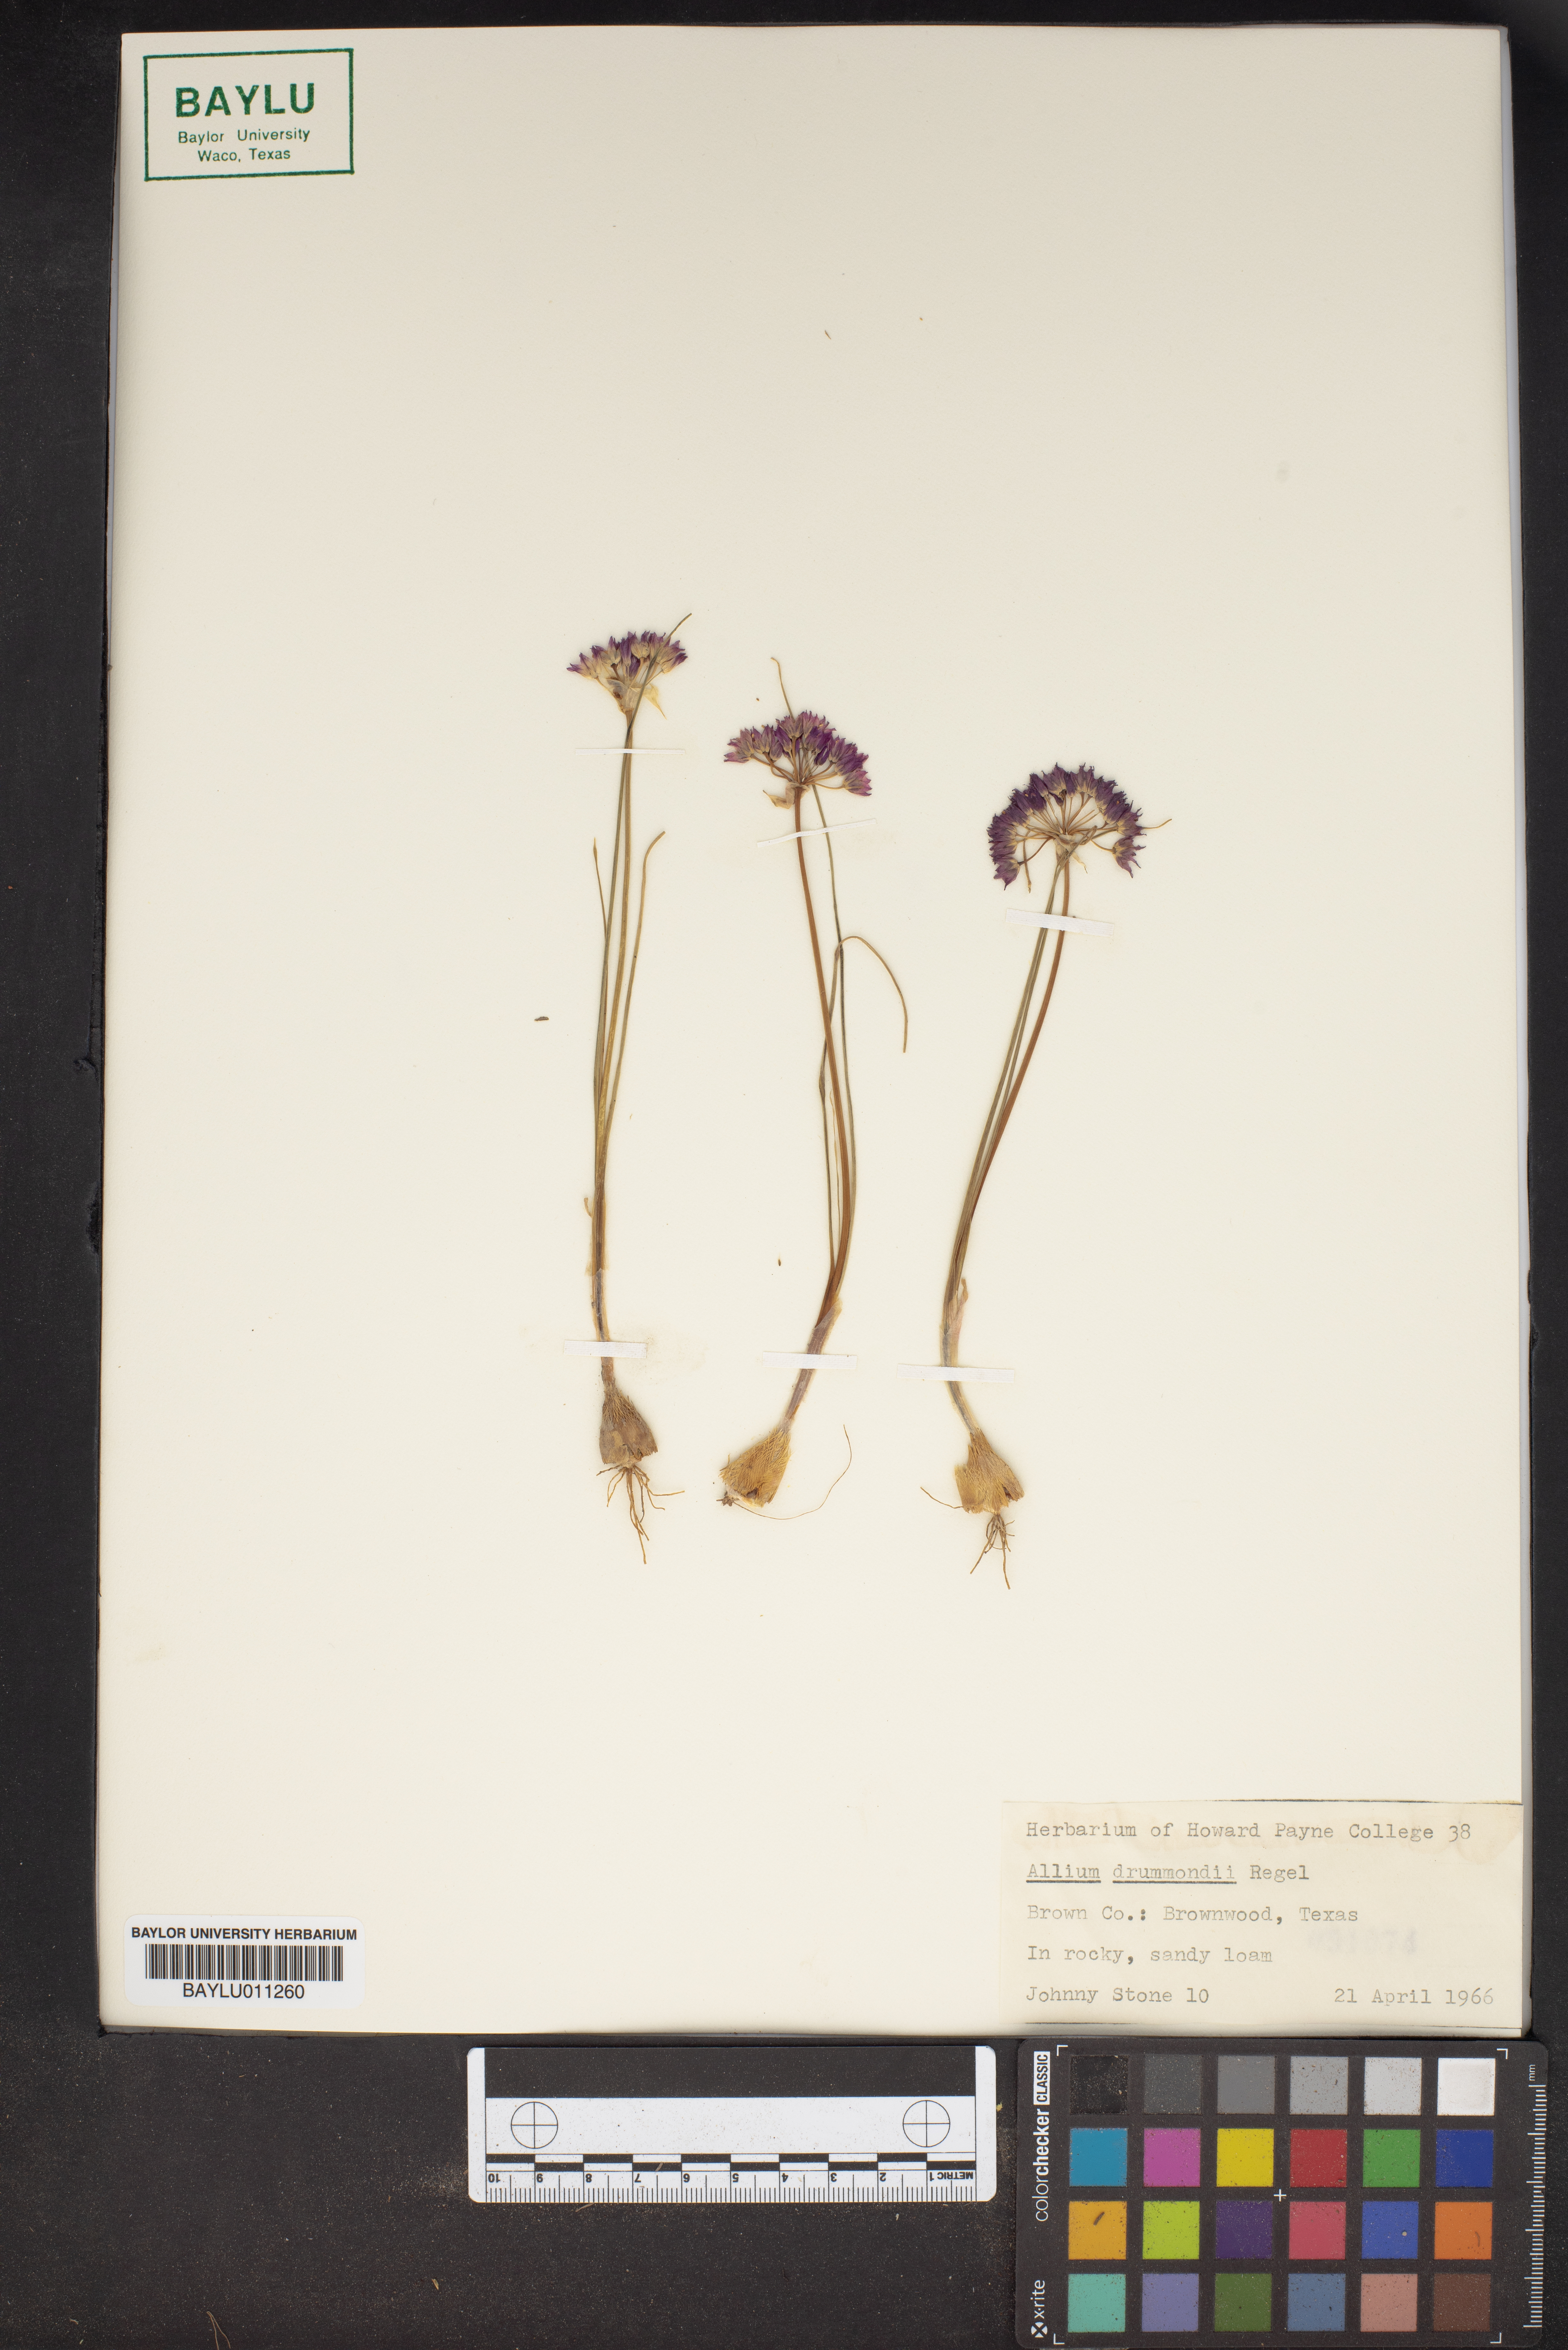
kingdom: Plantae
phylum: Tracheophyta
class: Liliopsida
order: Asparagales
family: Amaryllidaceae
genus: Allium
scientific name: Allium drummondii
